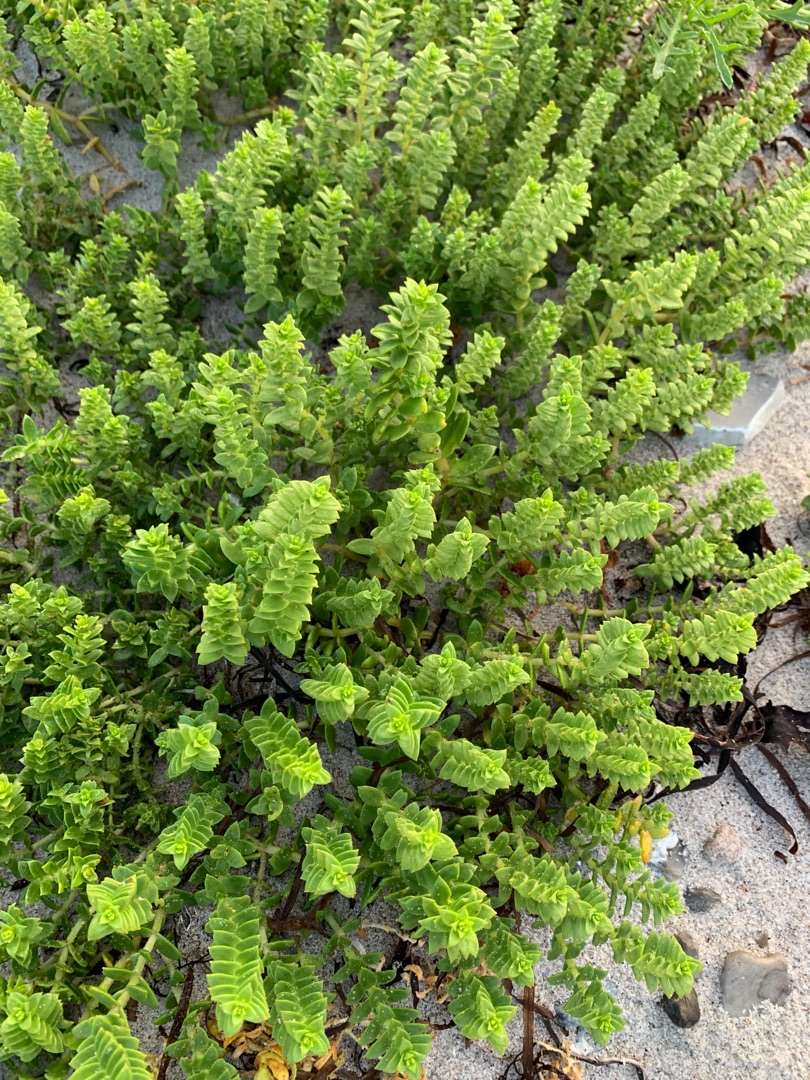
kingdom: Plantae
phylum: Tracheophyta
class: Magnoliopsida
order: Caryophyllales
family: Caryophyllaceae
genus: Honckenya
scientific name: Honckenya peploides
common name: Strandarve
